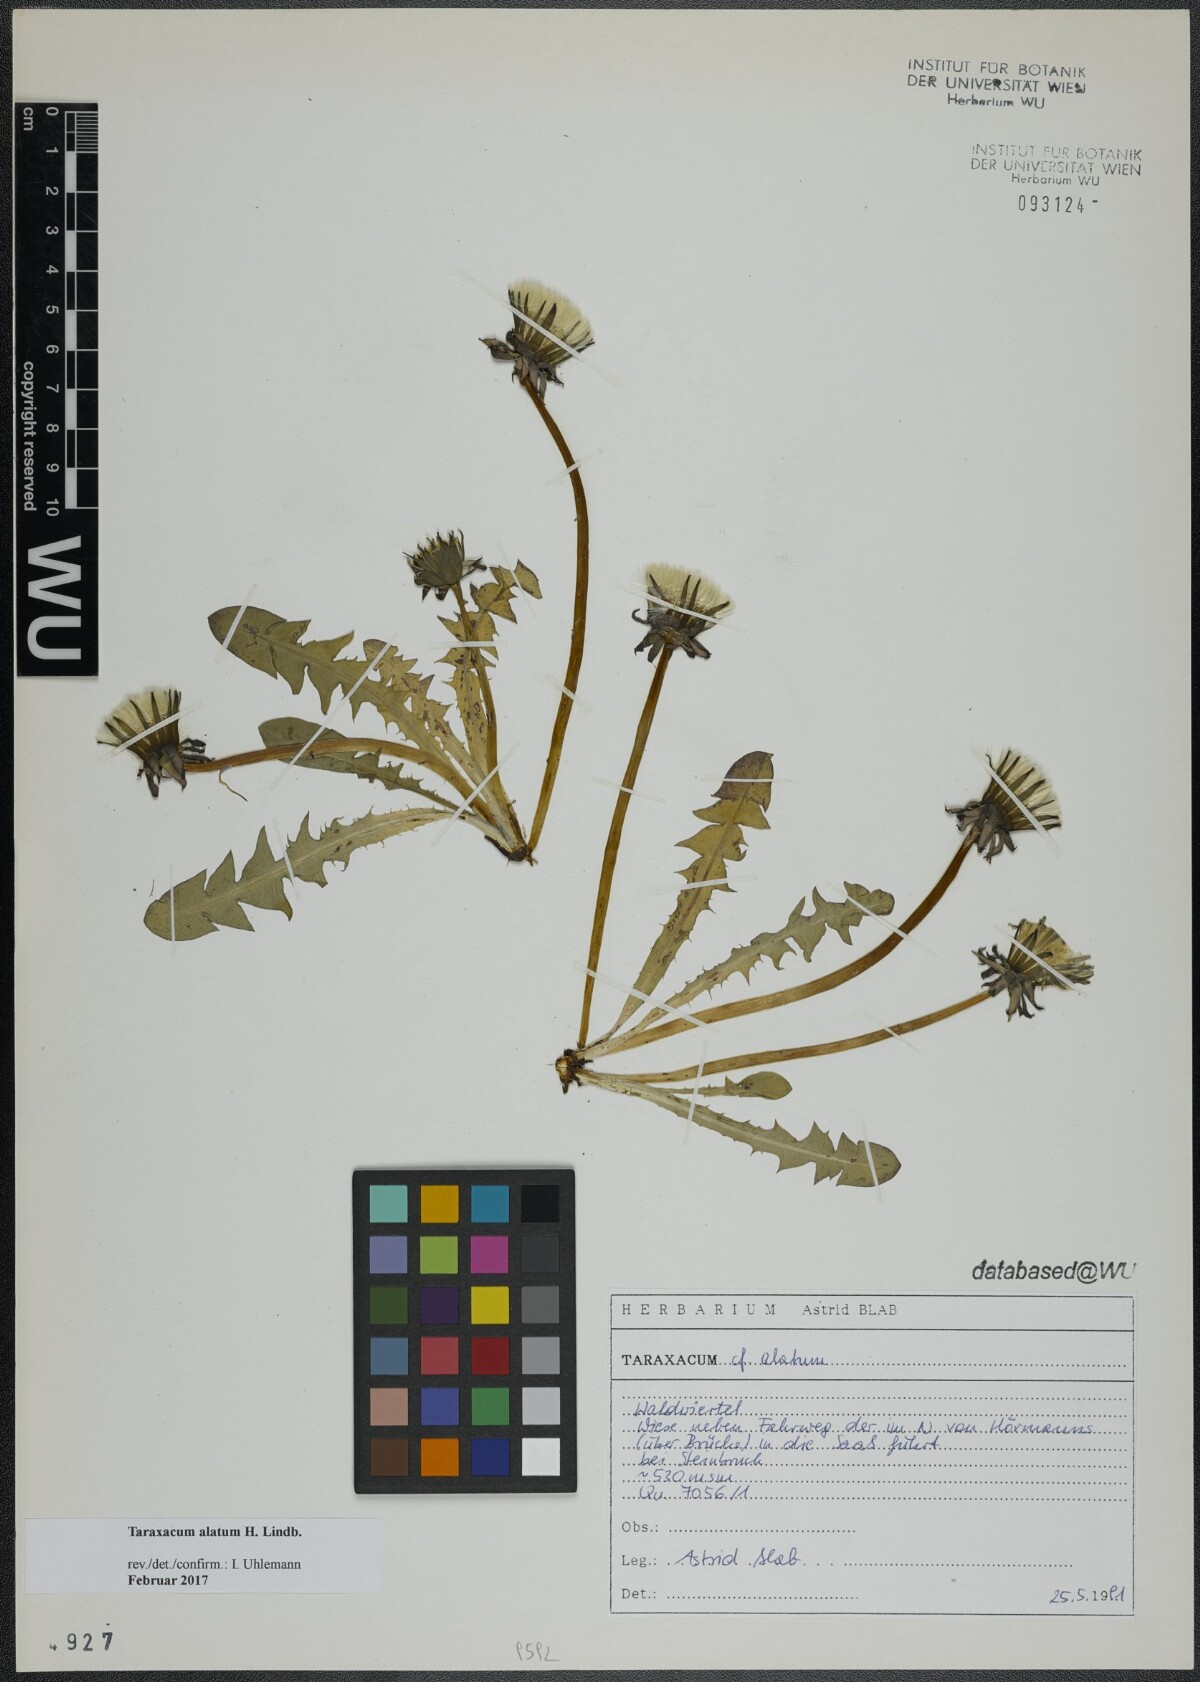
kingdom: Plantae
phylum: Tracheophyta
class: Magnoliopsida
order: Asterales
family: Asteraceae
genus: Taraxacum
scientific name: Taraxacum alatum
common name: Green dandelion
